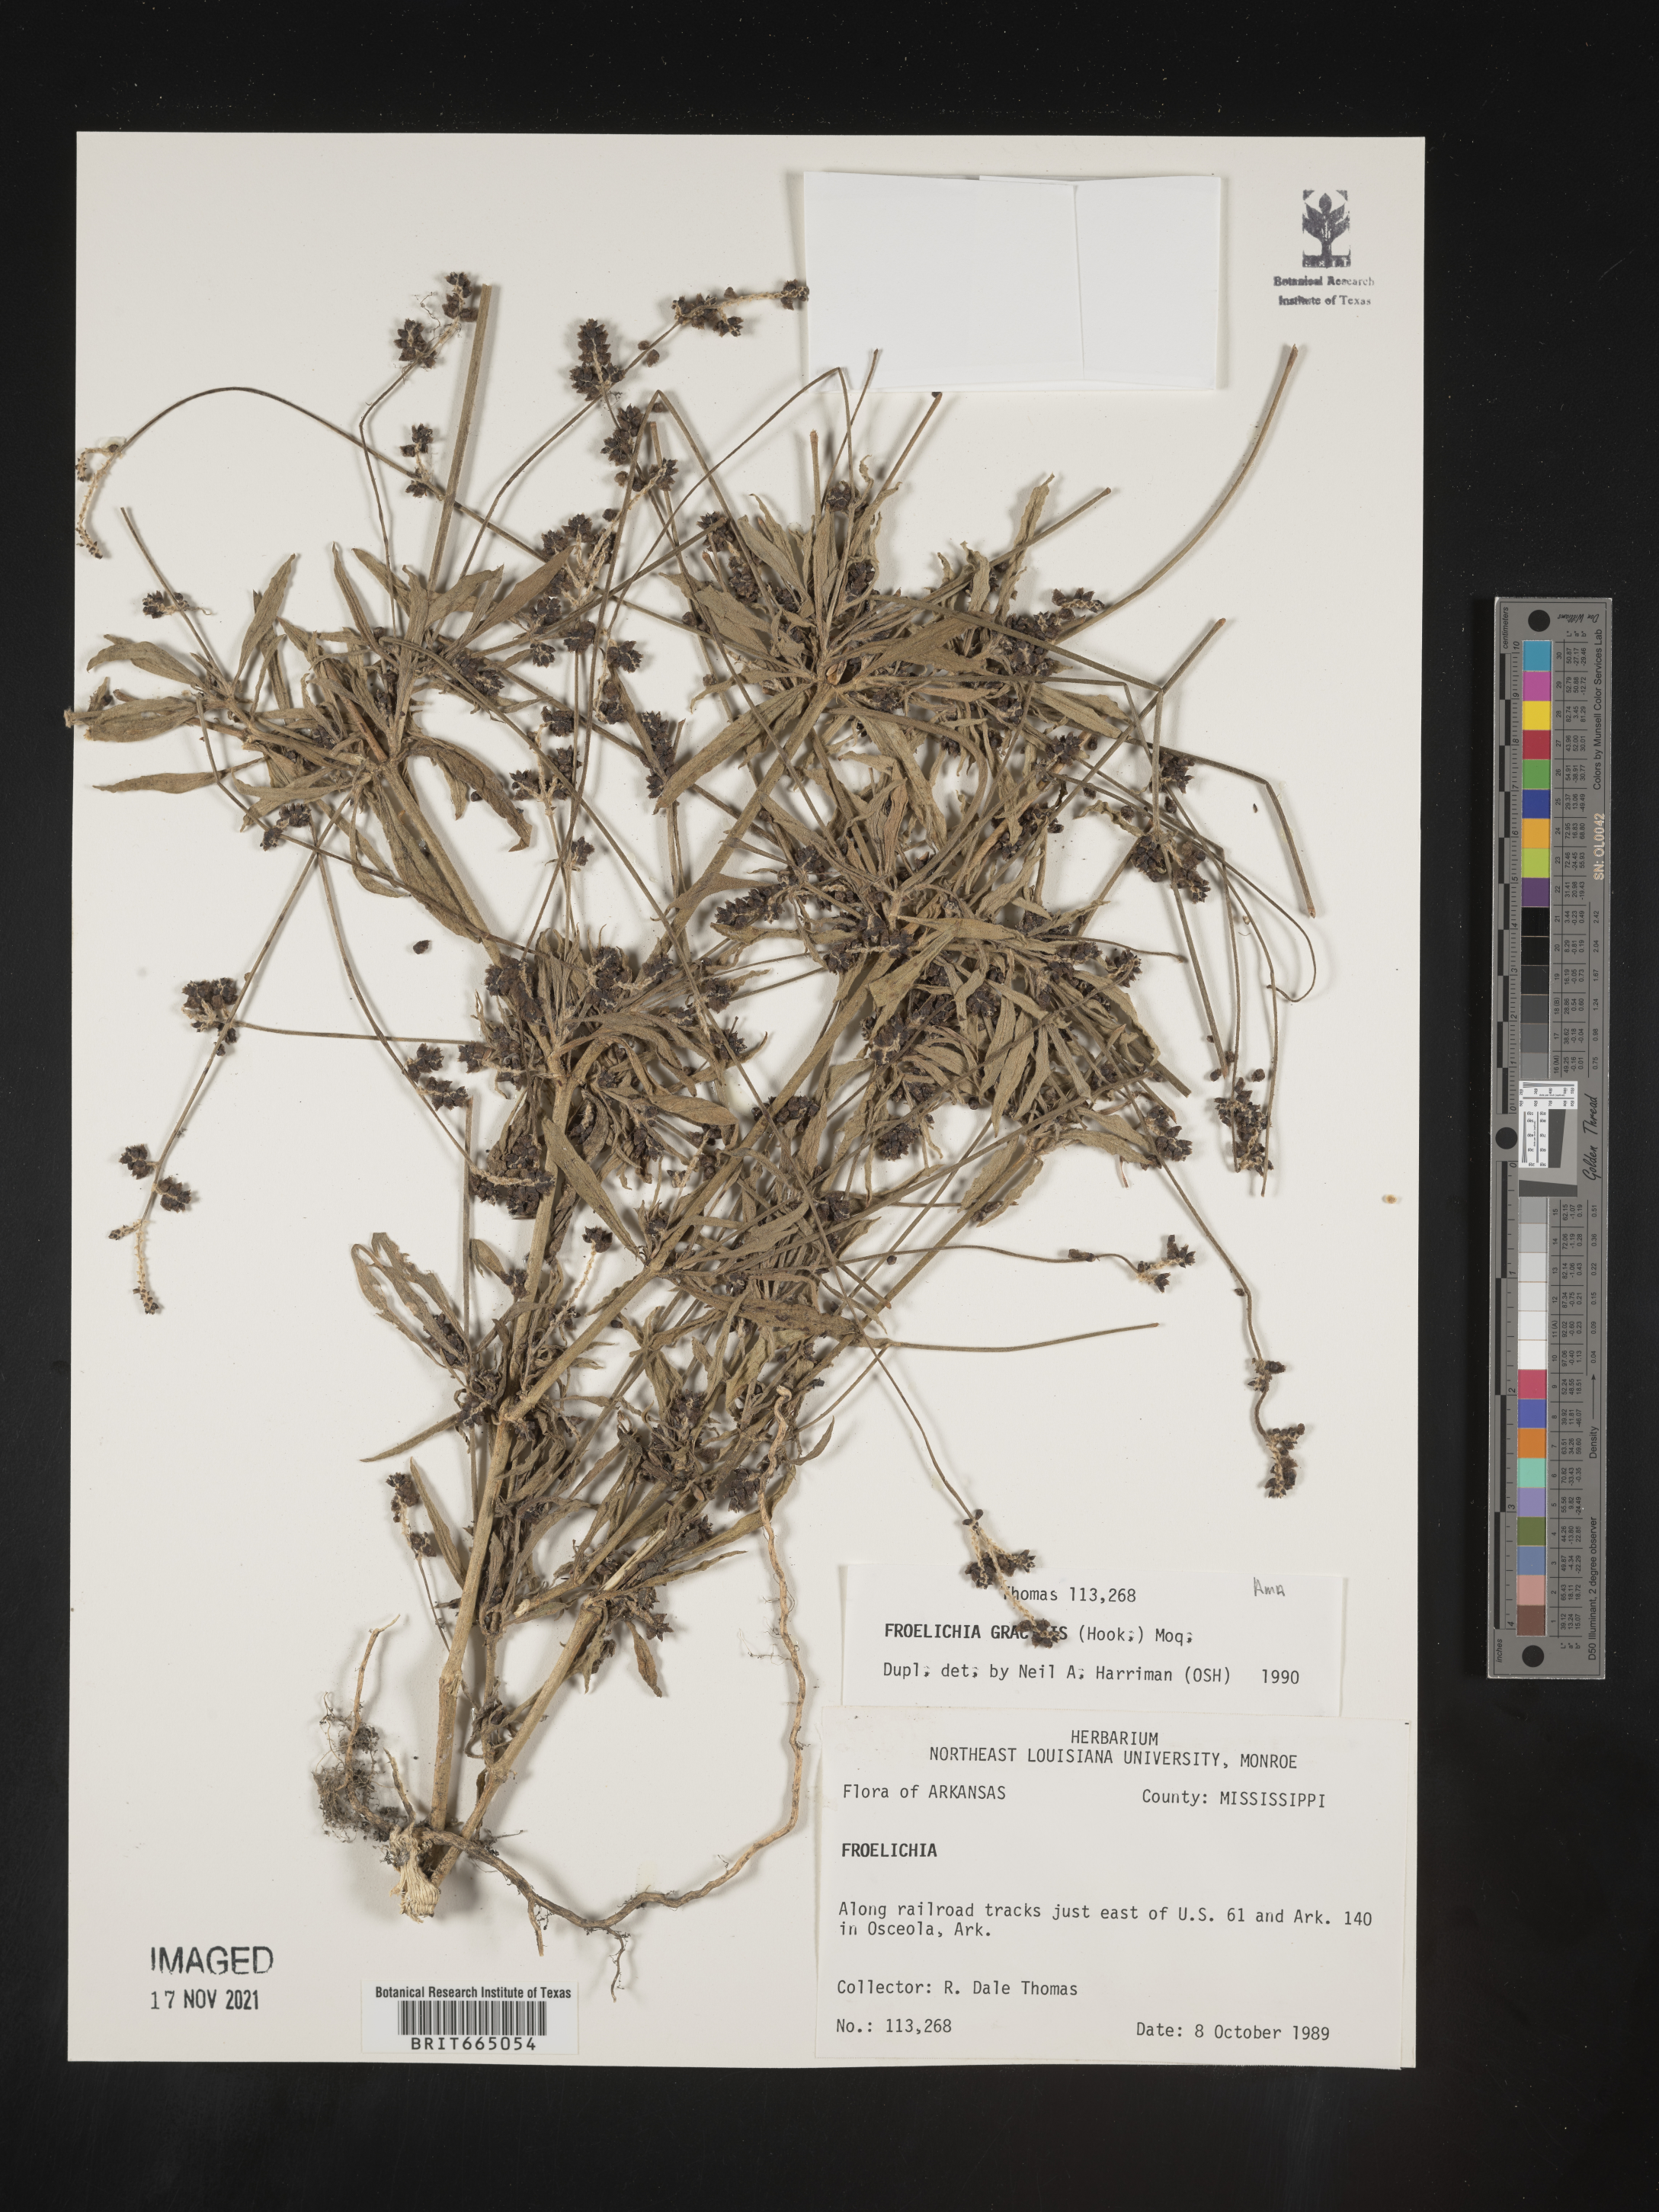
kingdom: Plantae
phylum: Tracheophyta
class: Magnoliopsida
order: Caryophyllales
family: Amaranthaceae
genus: Froelichia
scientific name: Froelichia gracilis
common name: Slender cottonweed
